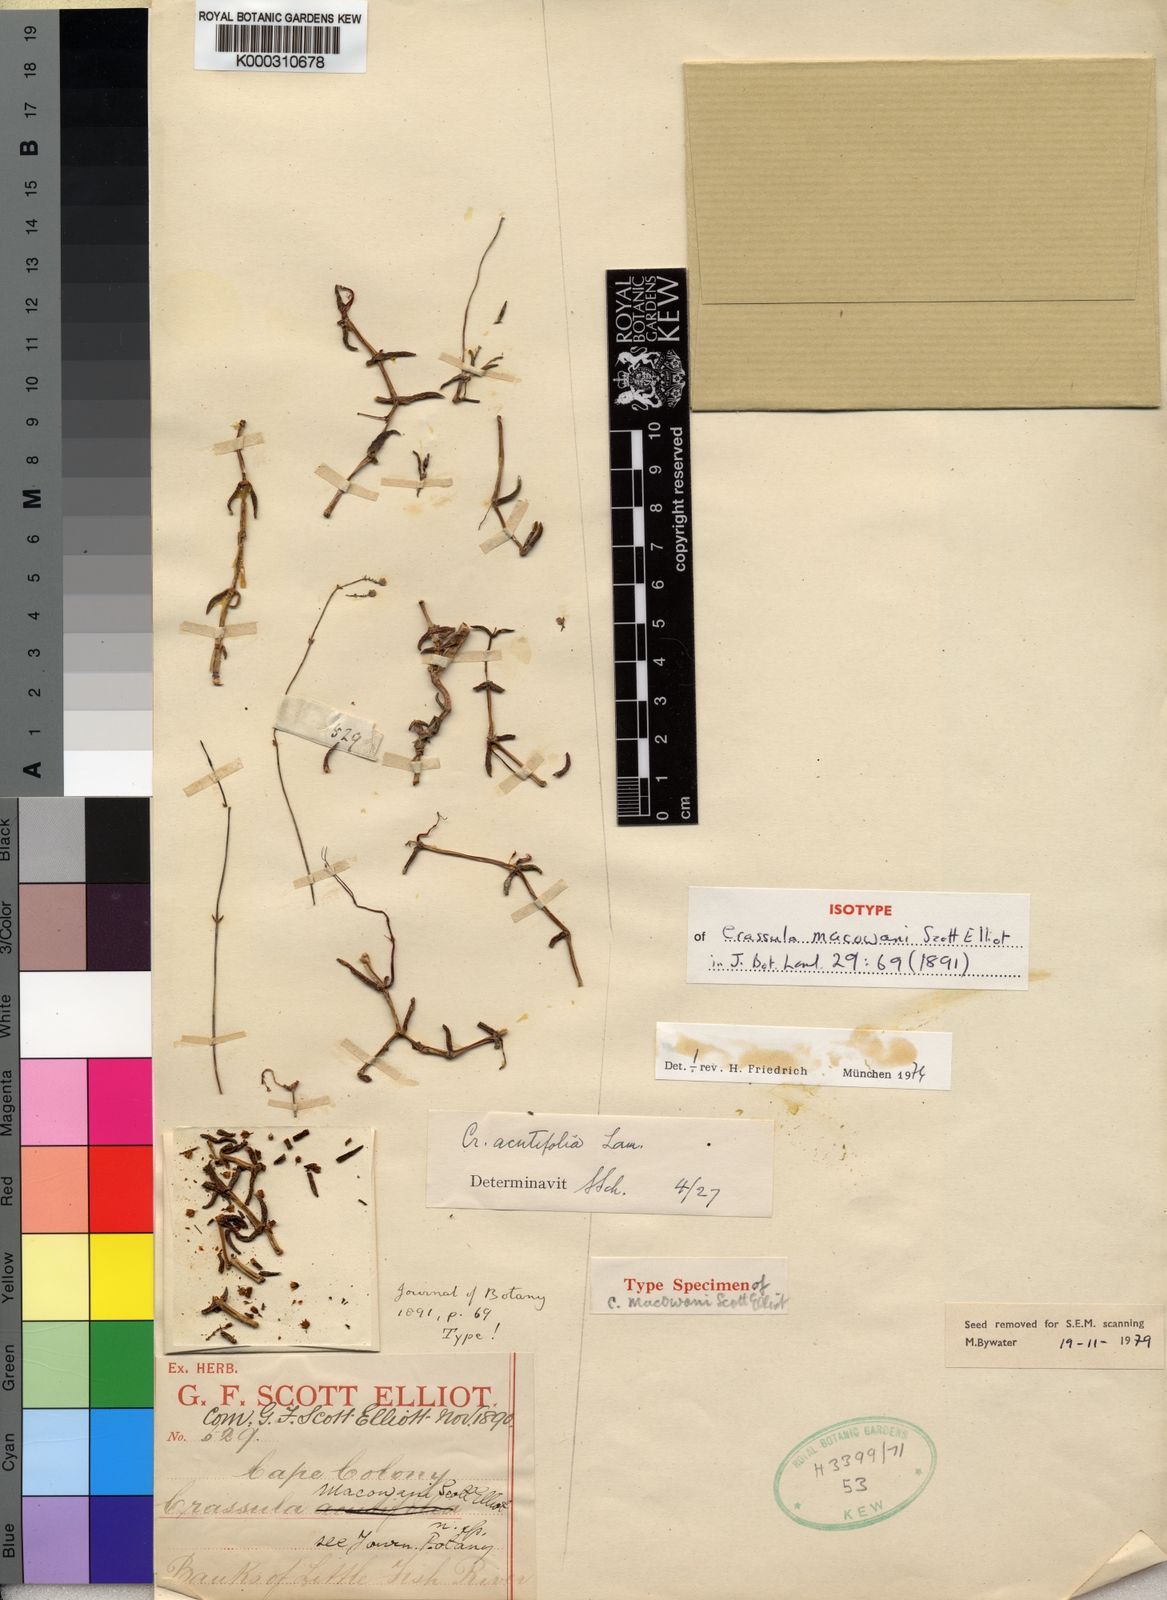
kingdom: Plantae
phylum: Tracheophyta
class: Magnoliopsida
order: Saxifragales
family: Crassulaceae
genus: Crassula
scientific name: Crassula tetragona
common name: Pygmyweed
